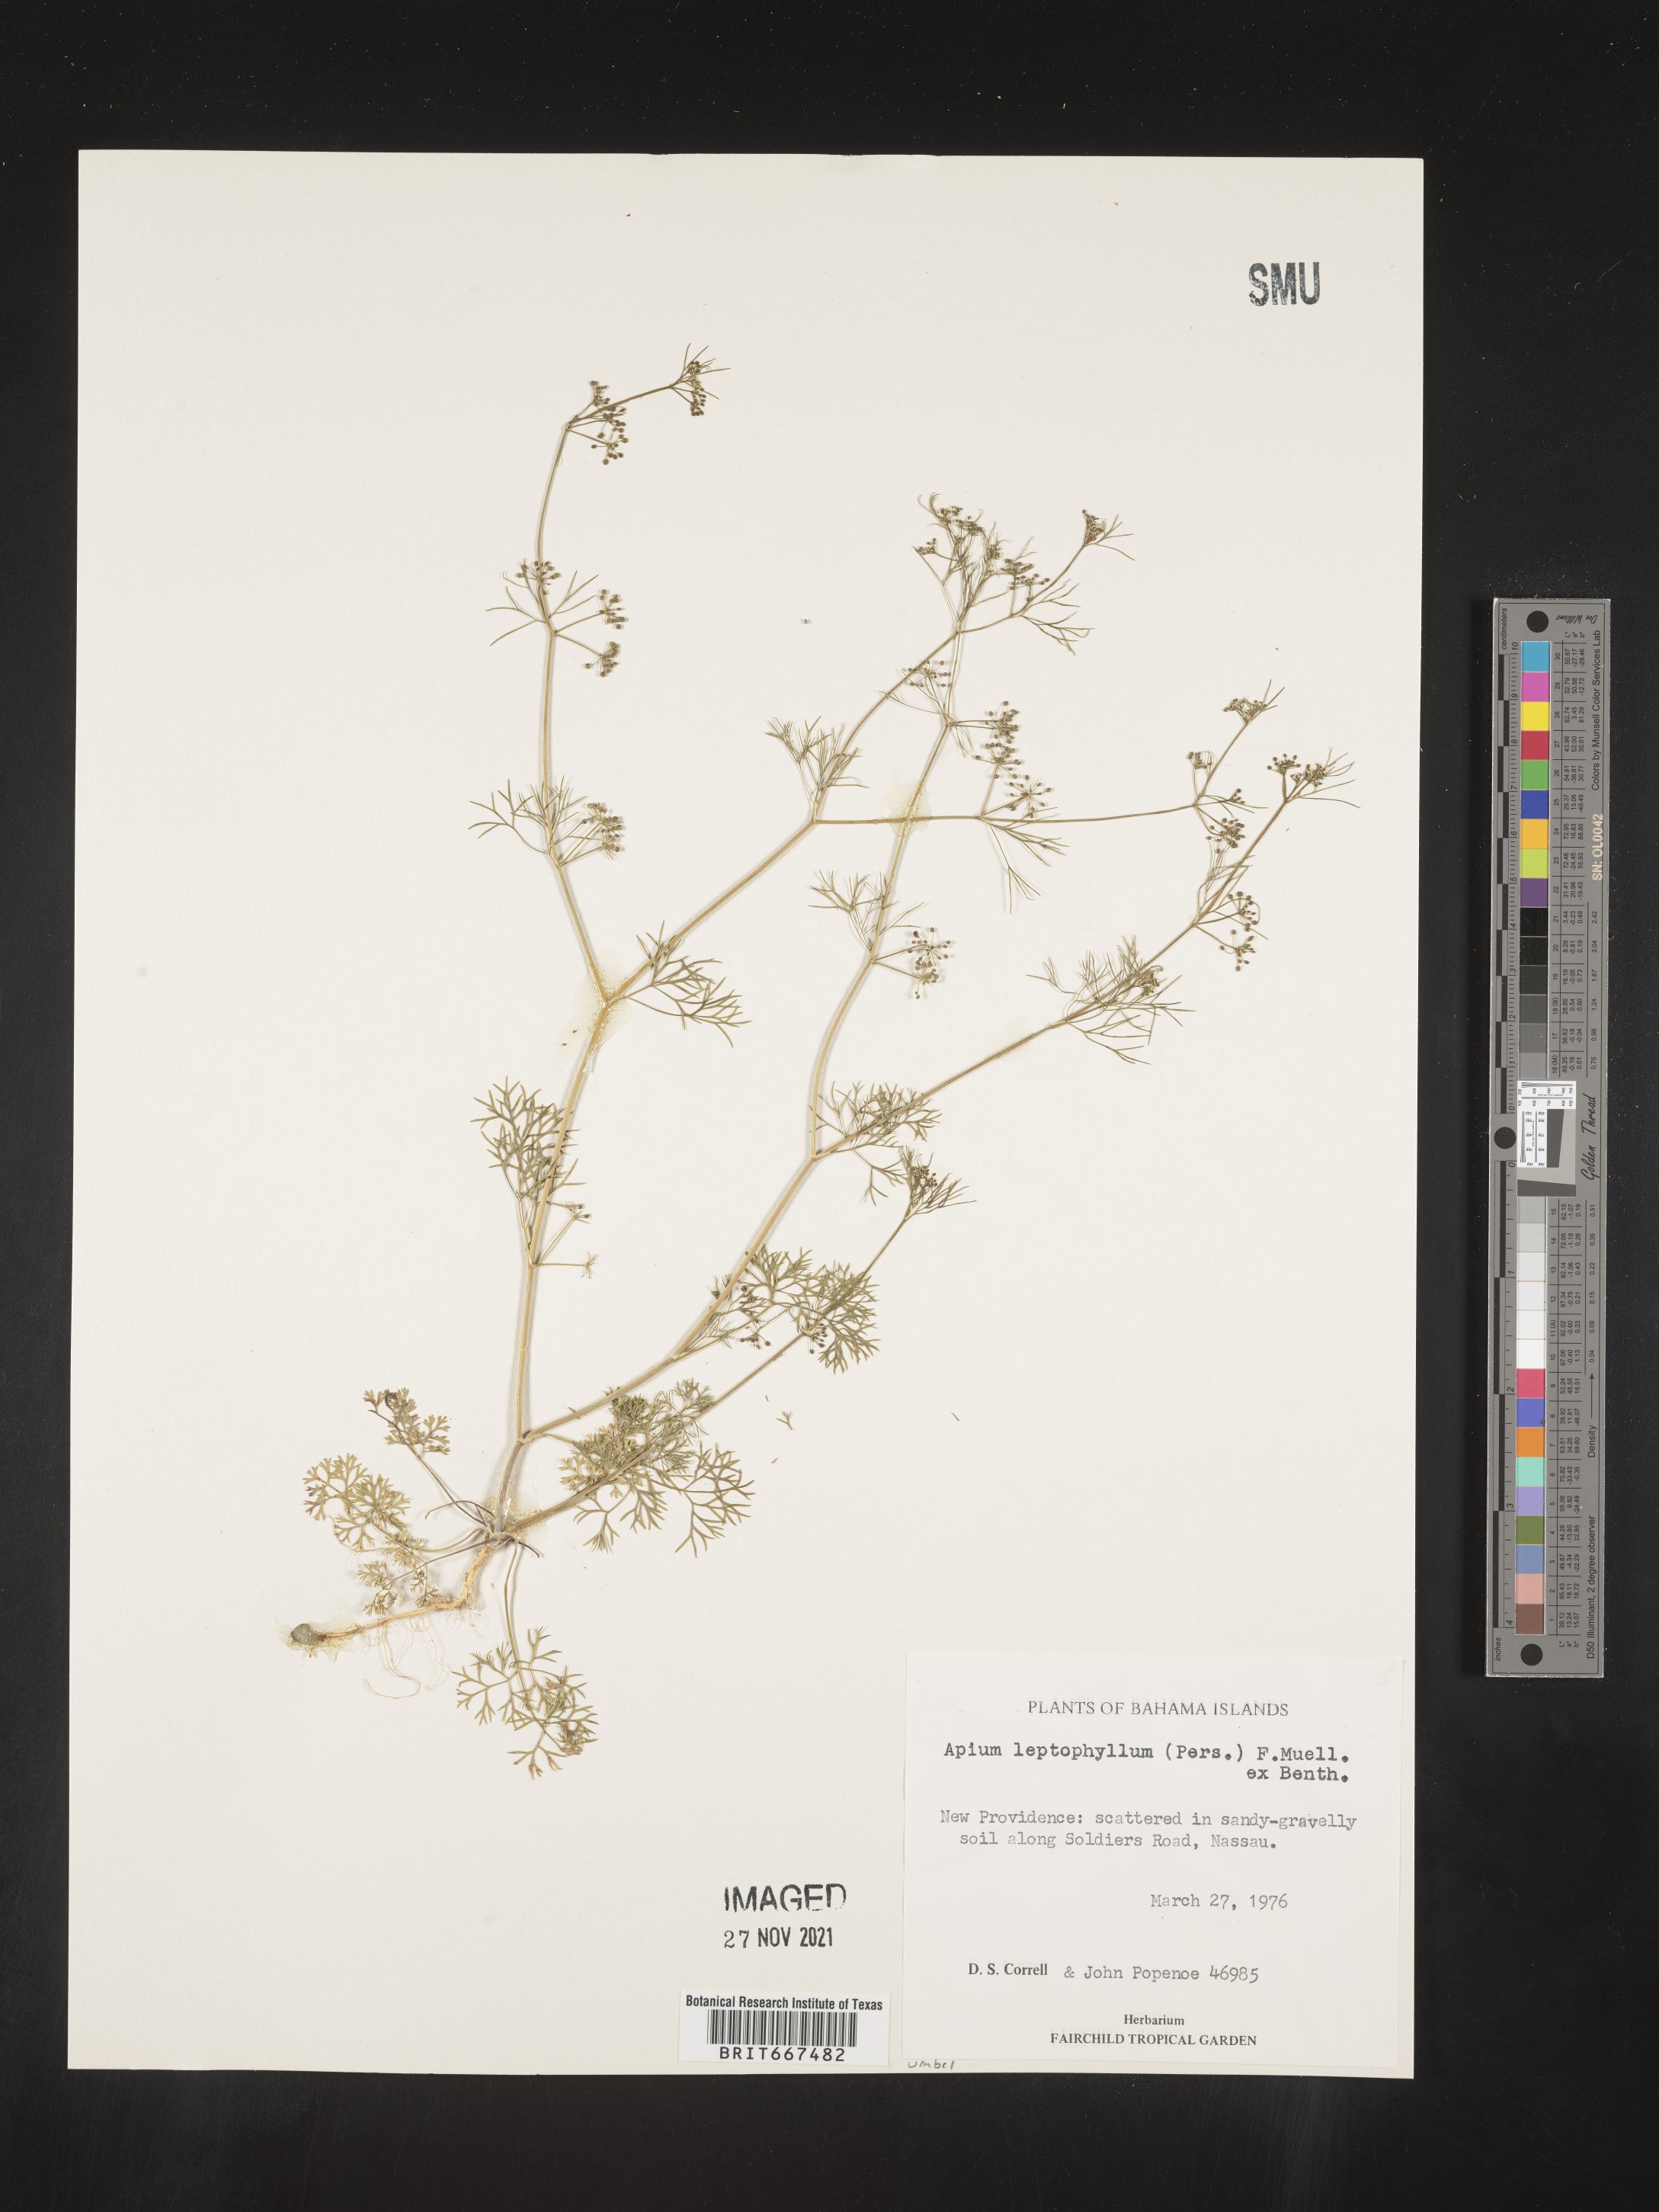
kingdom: Plantae
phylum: Tracheophyta
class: Magnoliopsida
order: Apiales
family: Apiaceae
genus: Apium
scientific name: Apium
